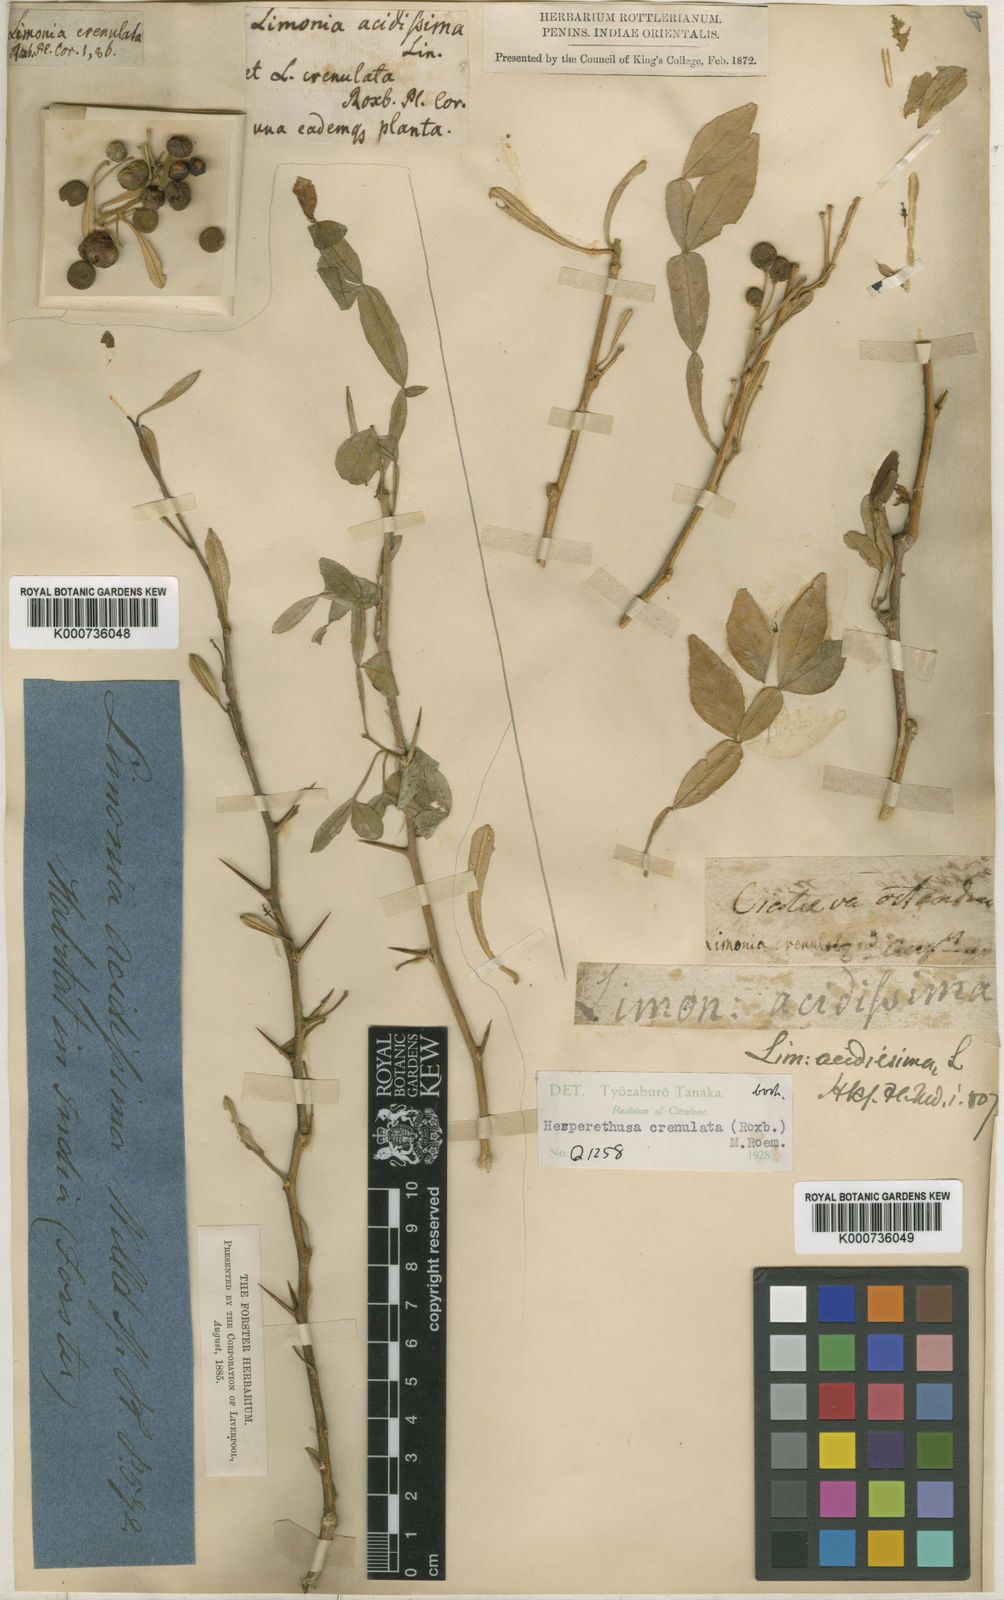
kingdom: Plantae
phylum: Tracheophyta
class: Magnoliopsida
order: Sapindales
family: Rutaceae
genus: Naringi
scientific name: Naringi crenulata
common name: Hesperethusa
